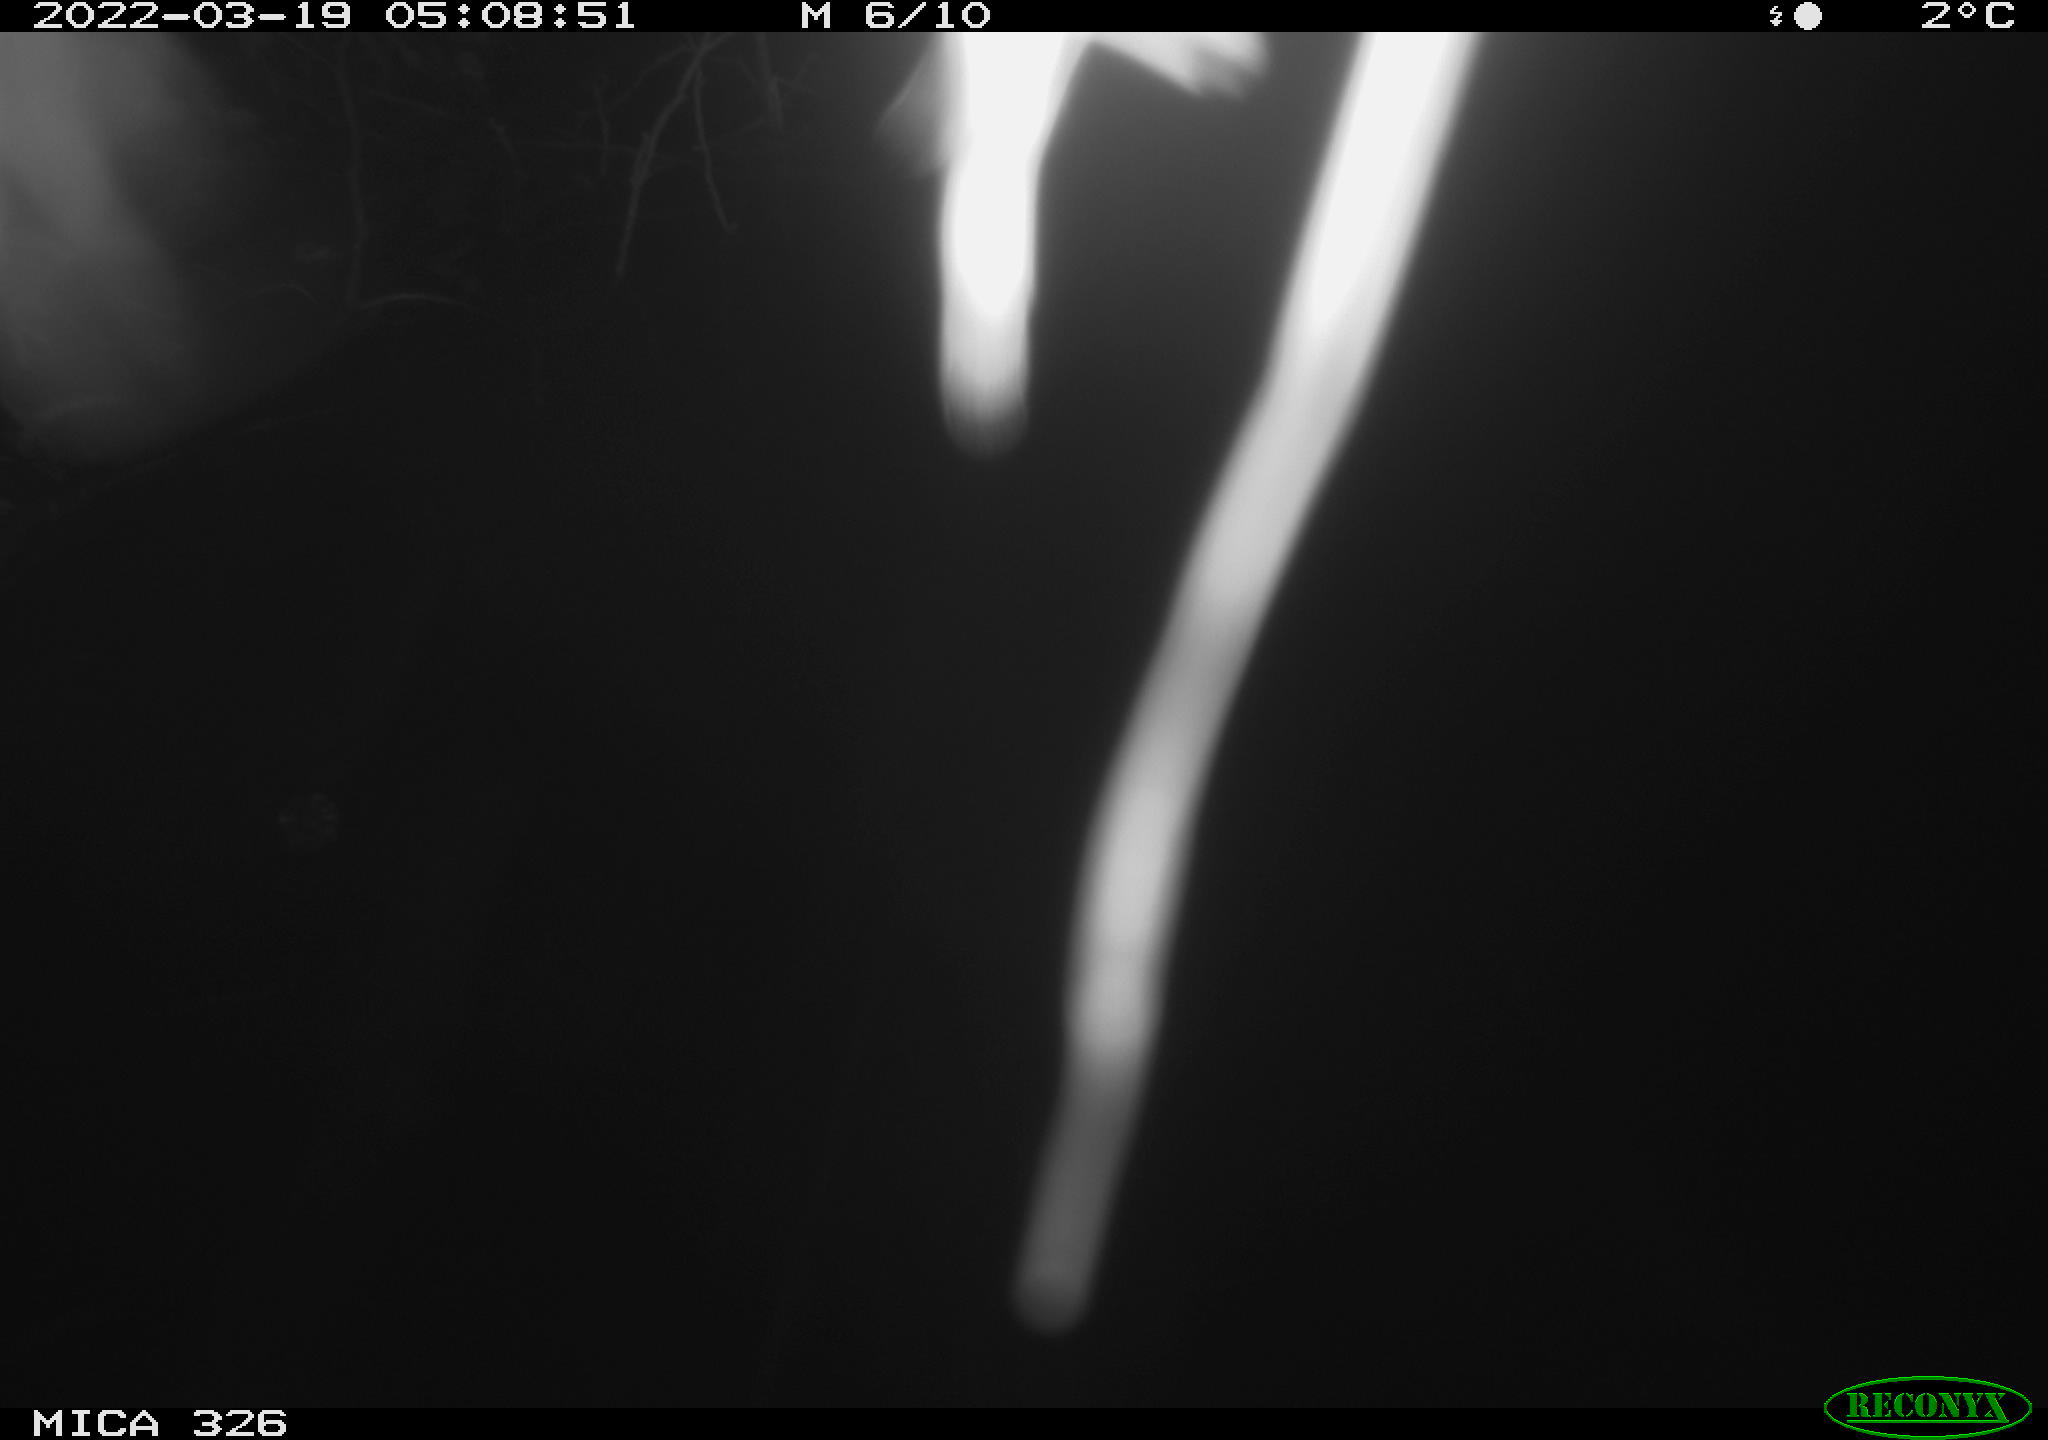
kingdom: Animalia
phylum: Chordata
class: Mammalia
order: Rodentia
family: Muridae
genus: Rattus
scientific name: Rattus norvegicus
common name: Brown rat
